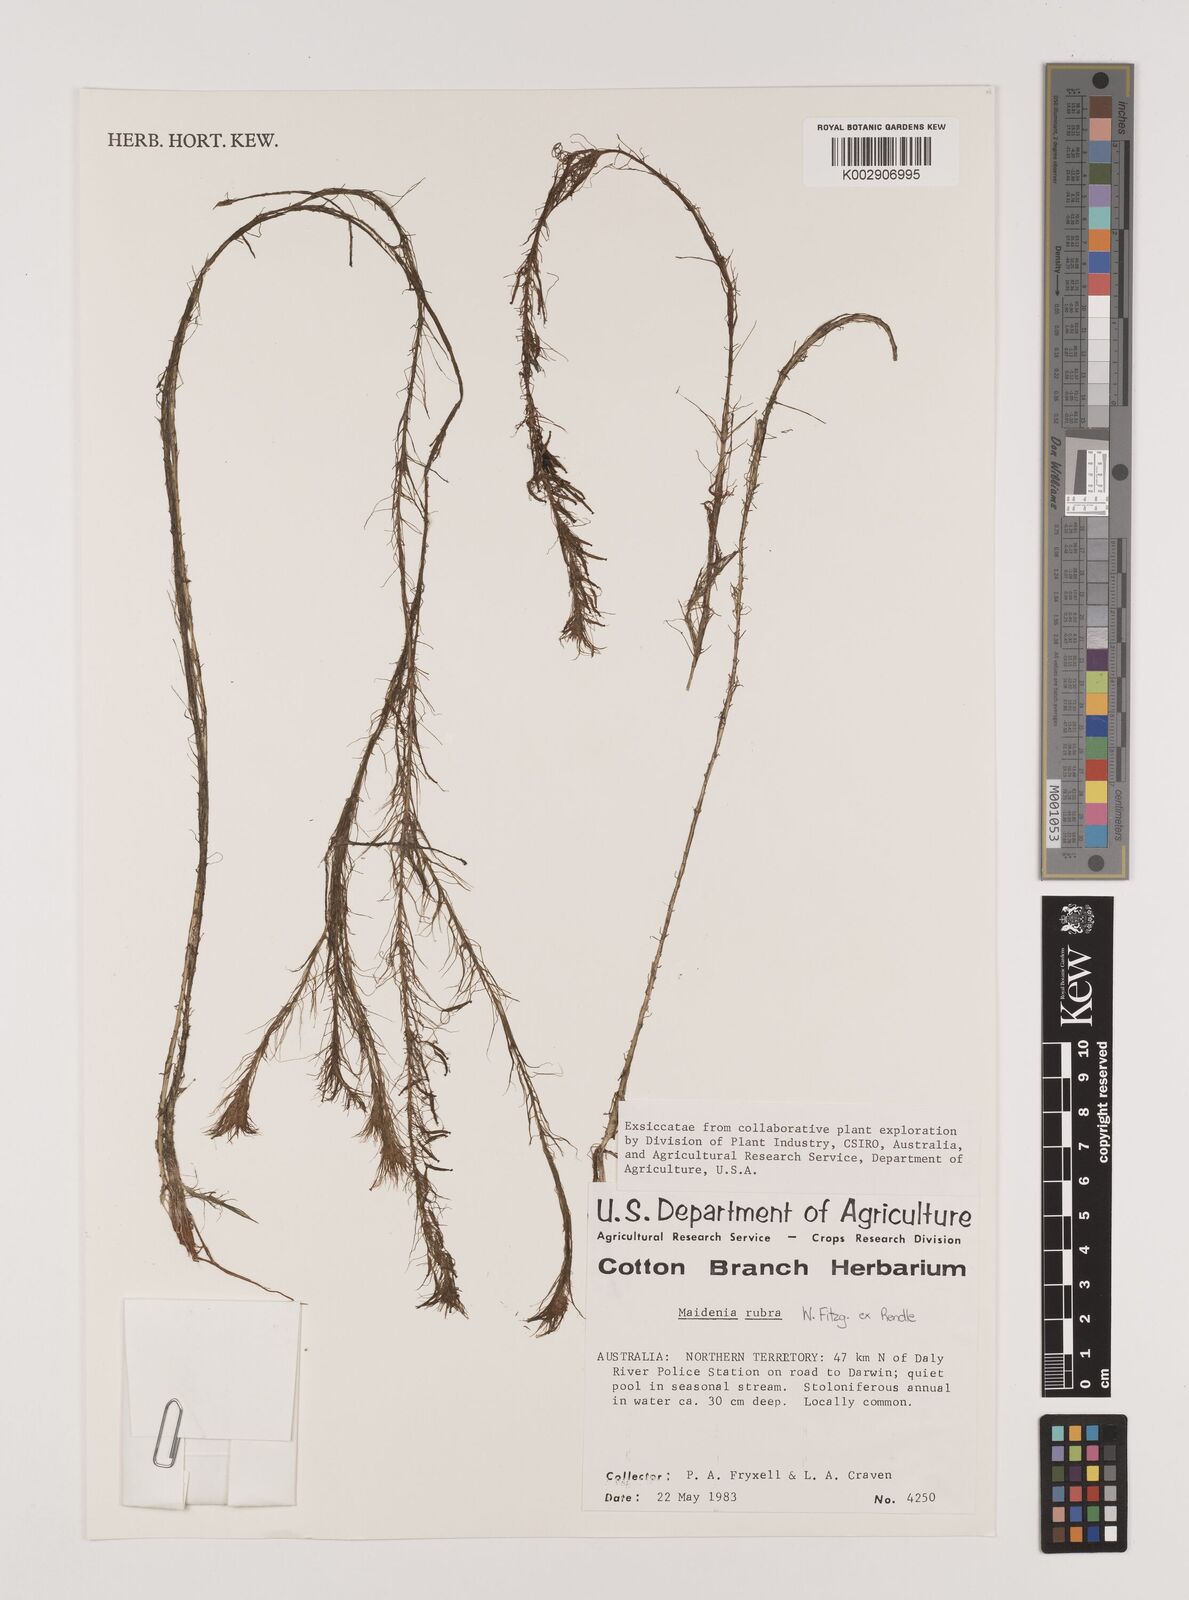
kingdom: Plantae
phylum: Tracheophyta
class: Liliopsida
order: Alismatales
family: Hydrocharitaceae
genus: Vallisneria
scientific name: Vallisneria rubra
